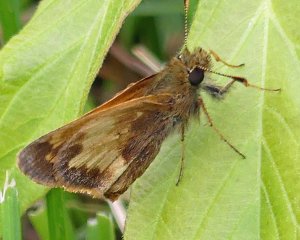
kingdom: Animalia
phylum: Arthropoda
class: Insecta
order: Lepidoptera
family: Hesperiidae
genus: Polites
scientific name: Polites coras
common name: Peck's Skipper
